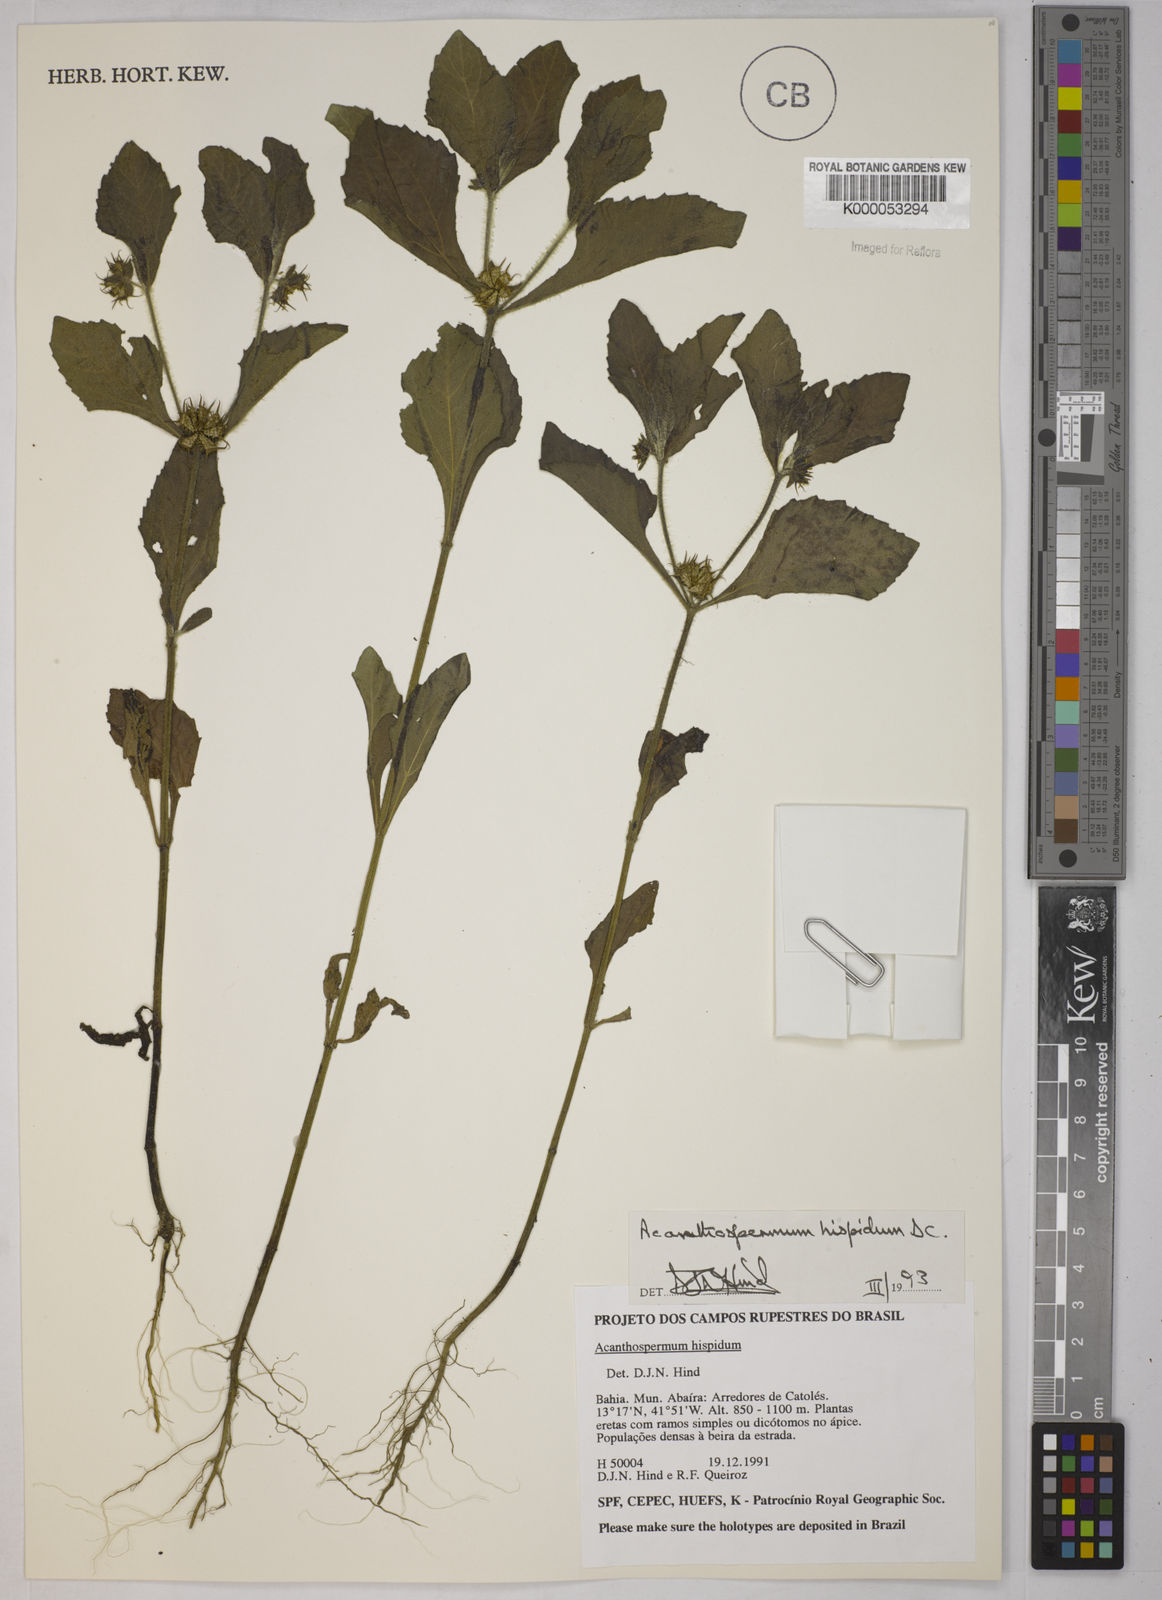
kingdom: Plantae
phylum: Tracheophyta
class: Magnoliopsida
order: Asterales
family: Asteraceae
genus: Acanthospermum
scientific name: Acanthospermum hispidum
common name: Hispid starbur
